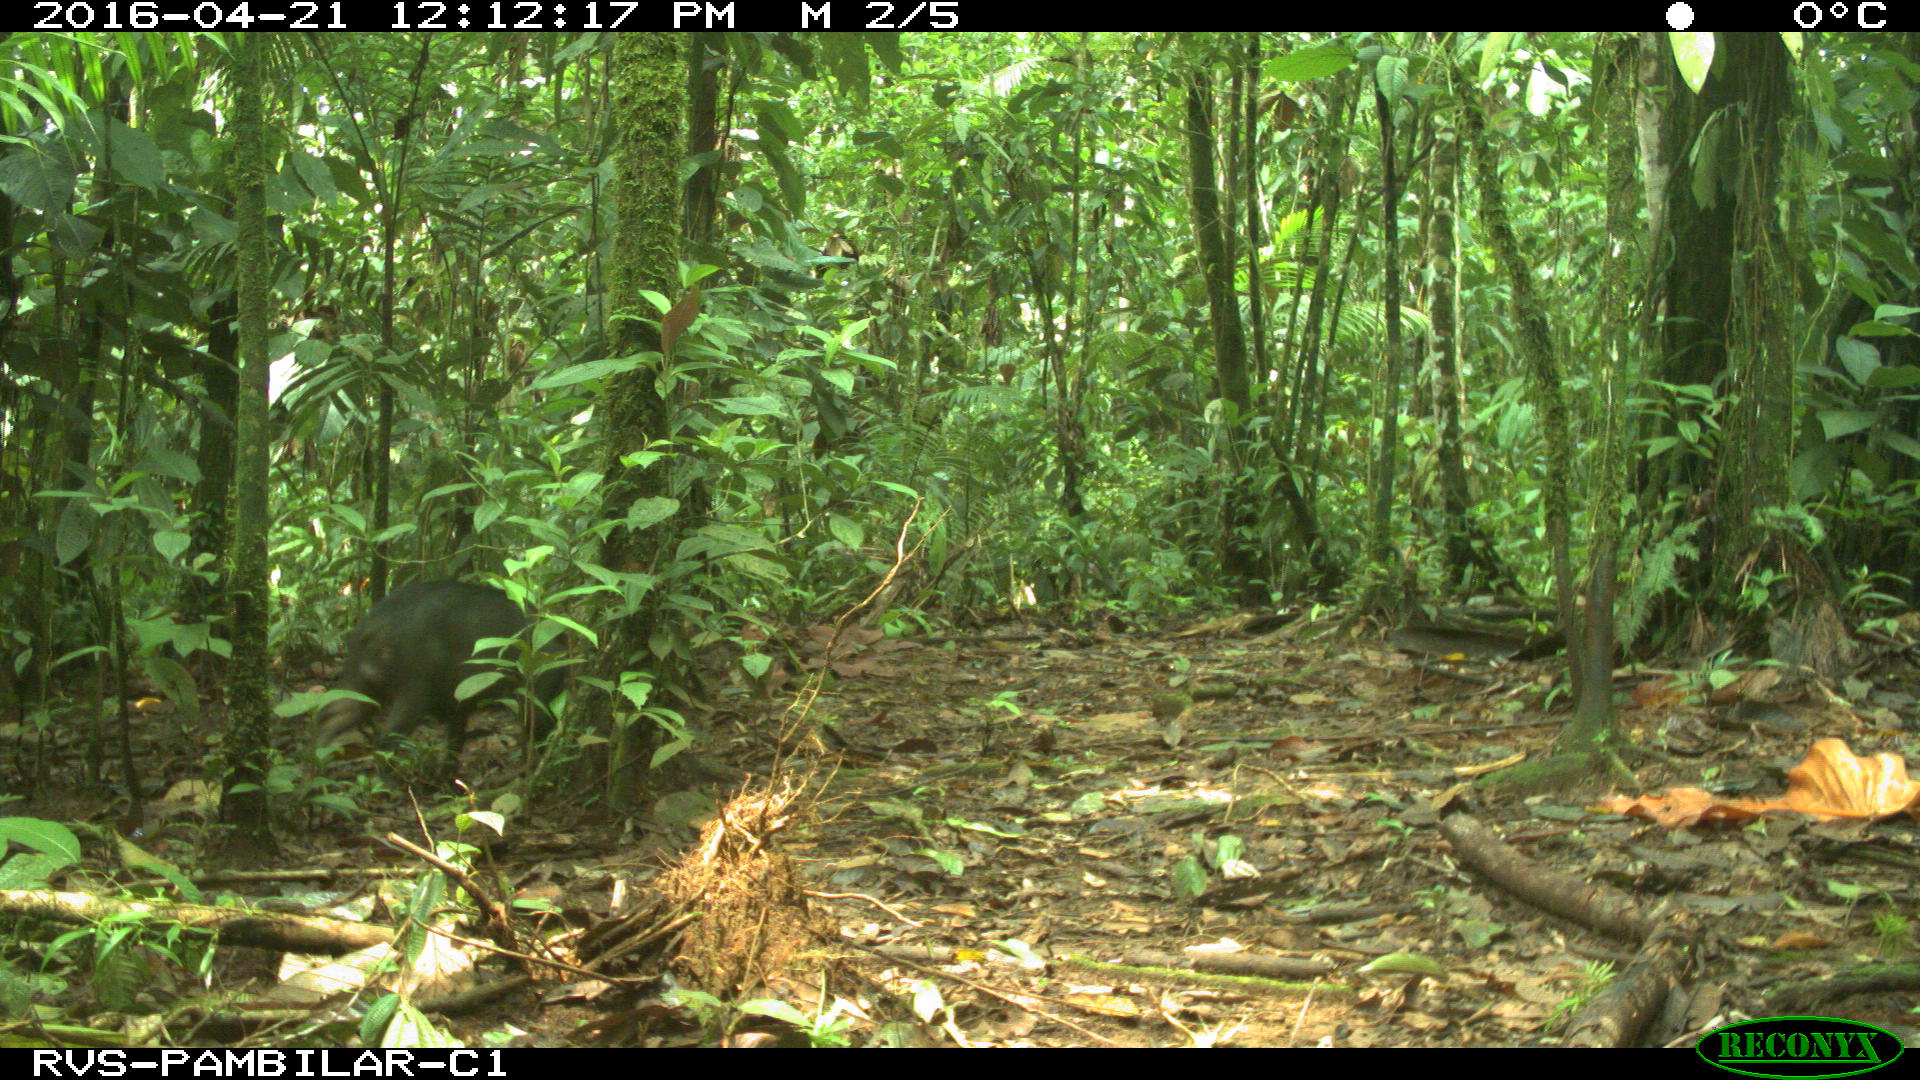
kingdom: Animalia
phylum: Chordata
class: Mammalia
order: Artiodactyla
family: Tayassuidae
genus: Tayassu
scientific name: Tayassu pecari
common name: White-lipped peccary
